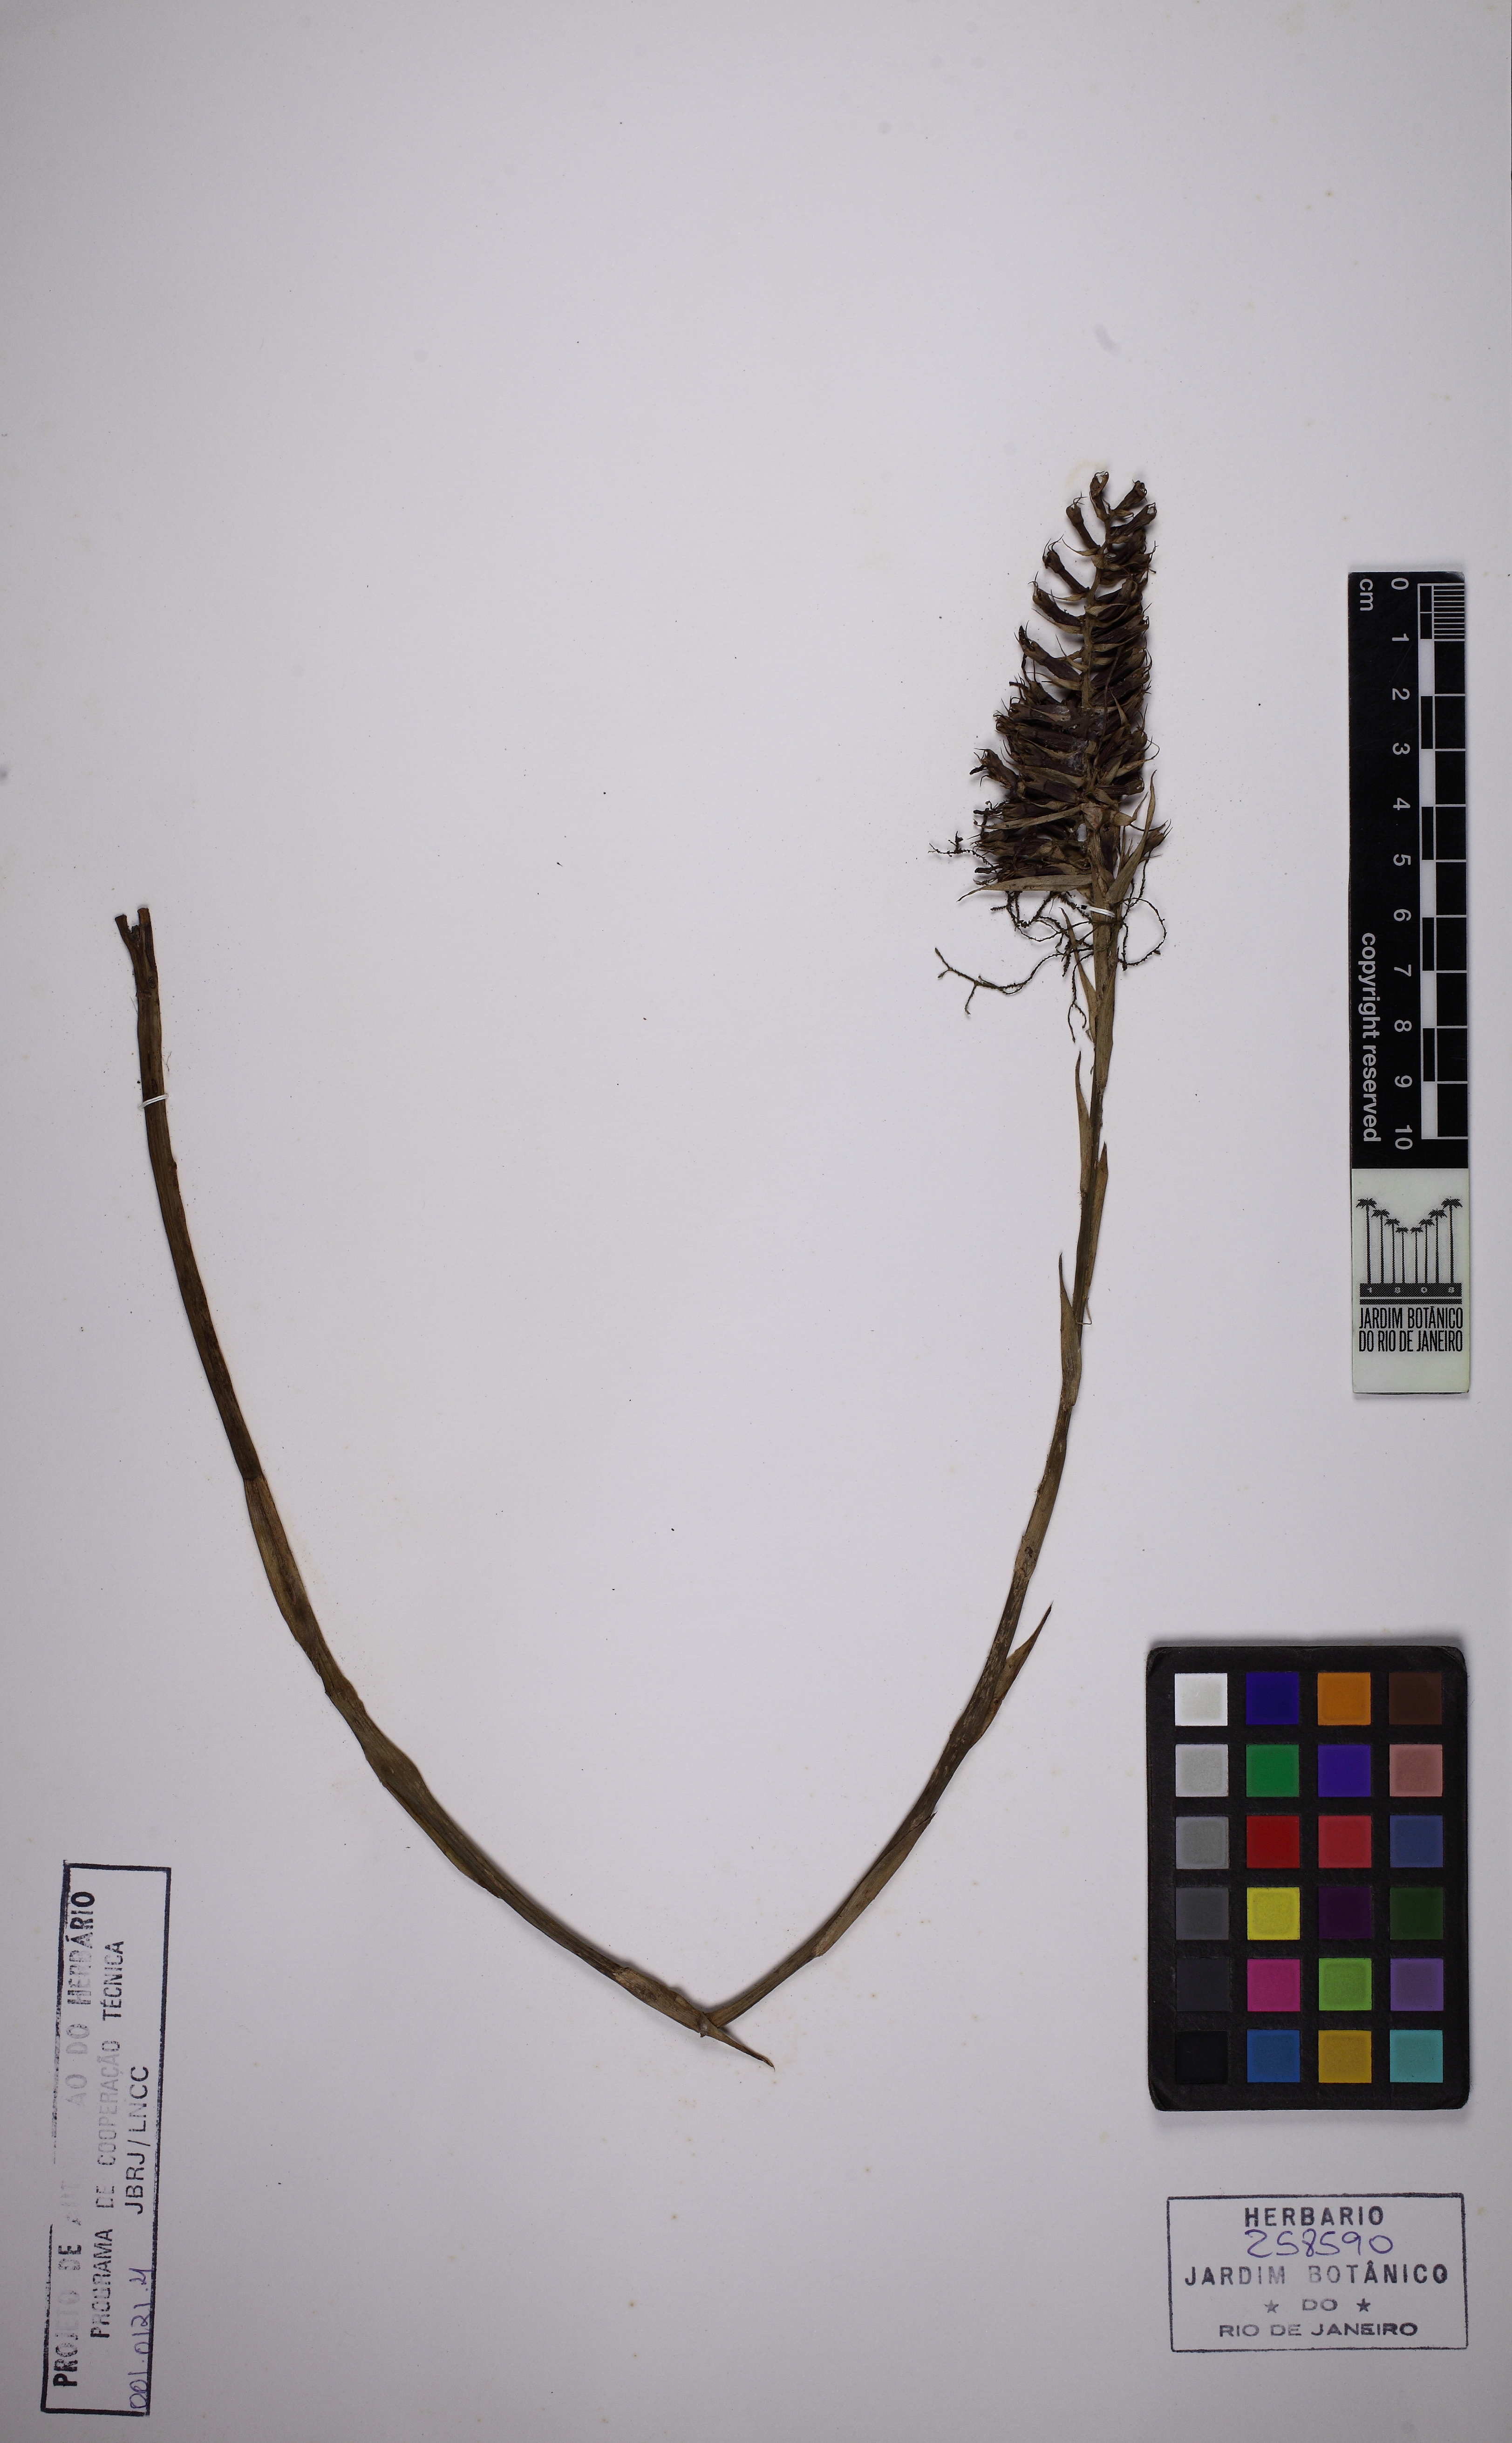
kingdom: Plantae
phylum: Tracheophyta
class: Liliopsida
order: Poales
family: Bromeliaceae
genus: Aechmea
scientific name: Aechmea coelestis
